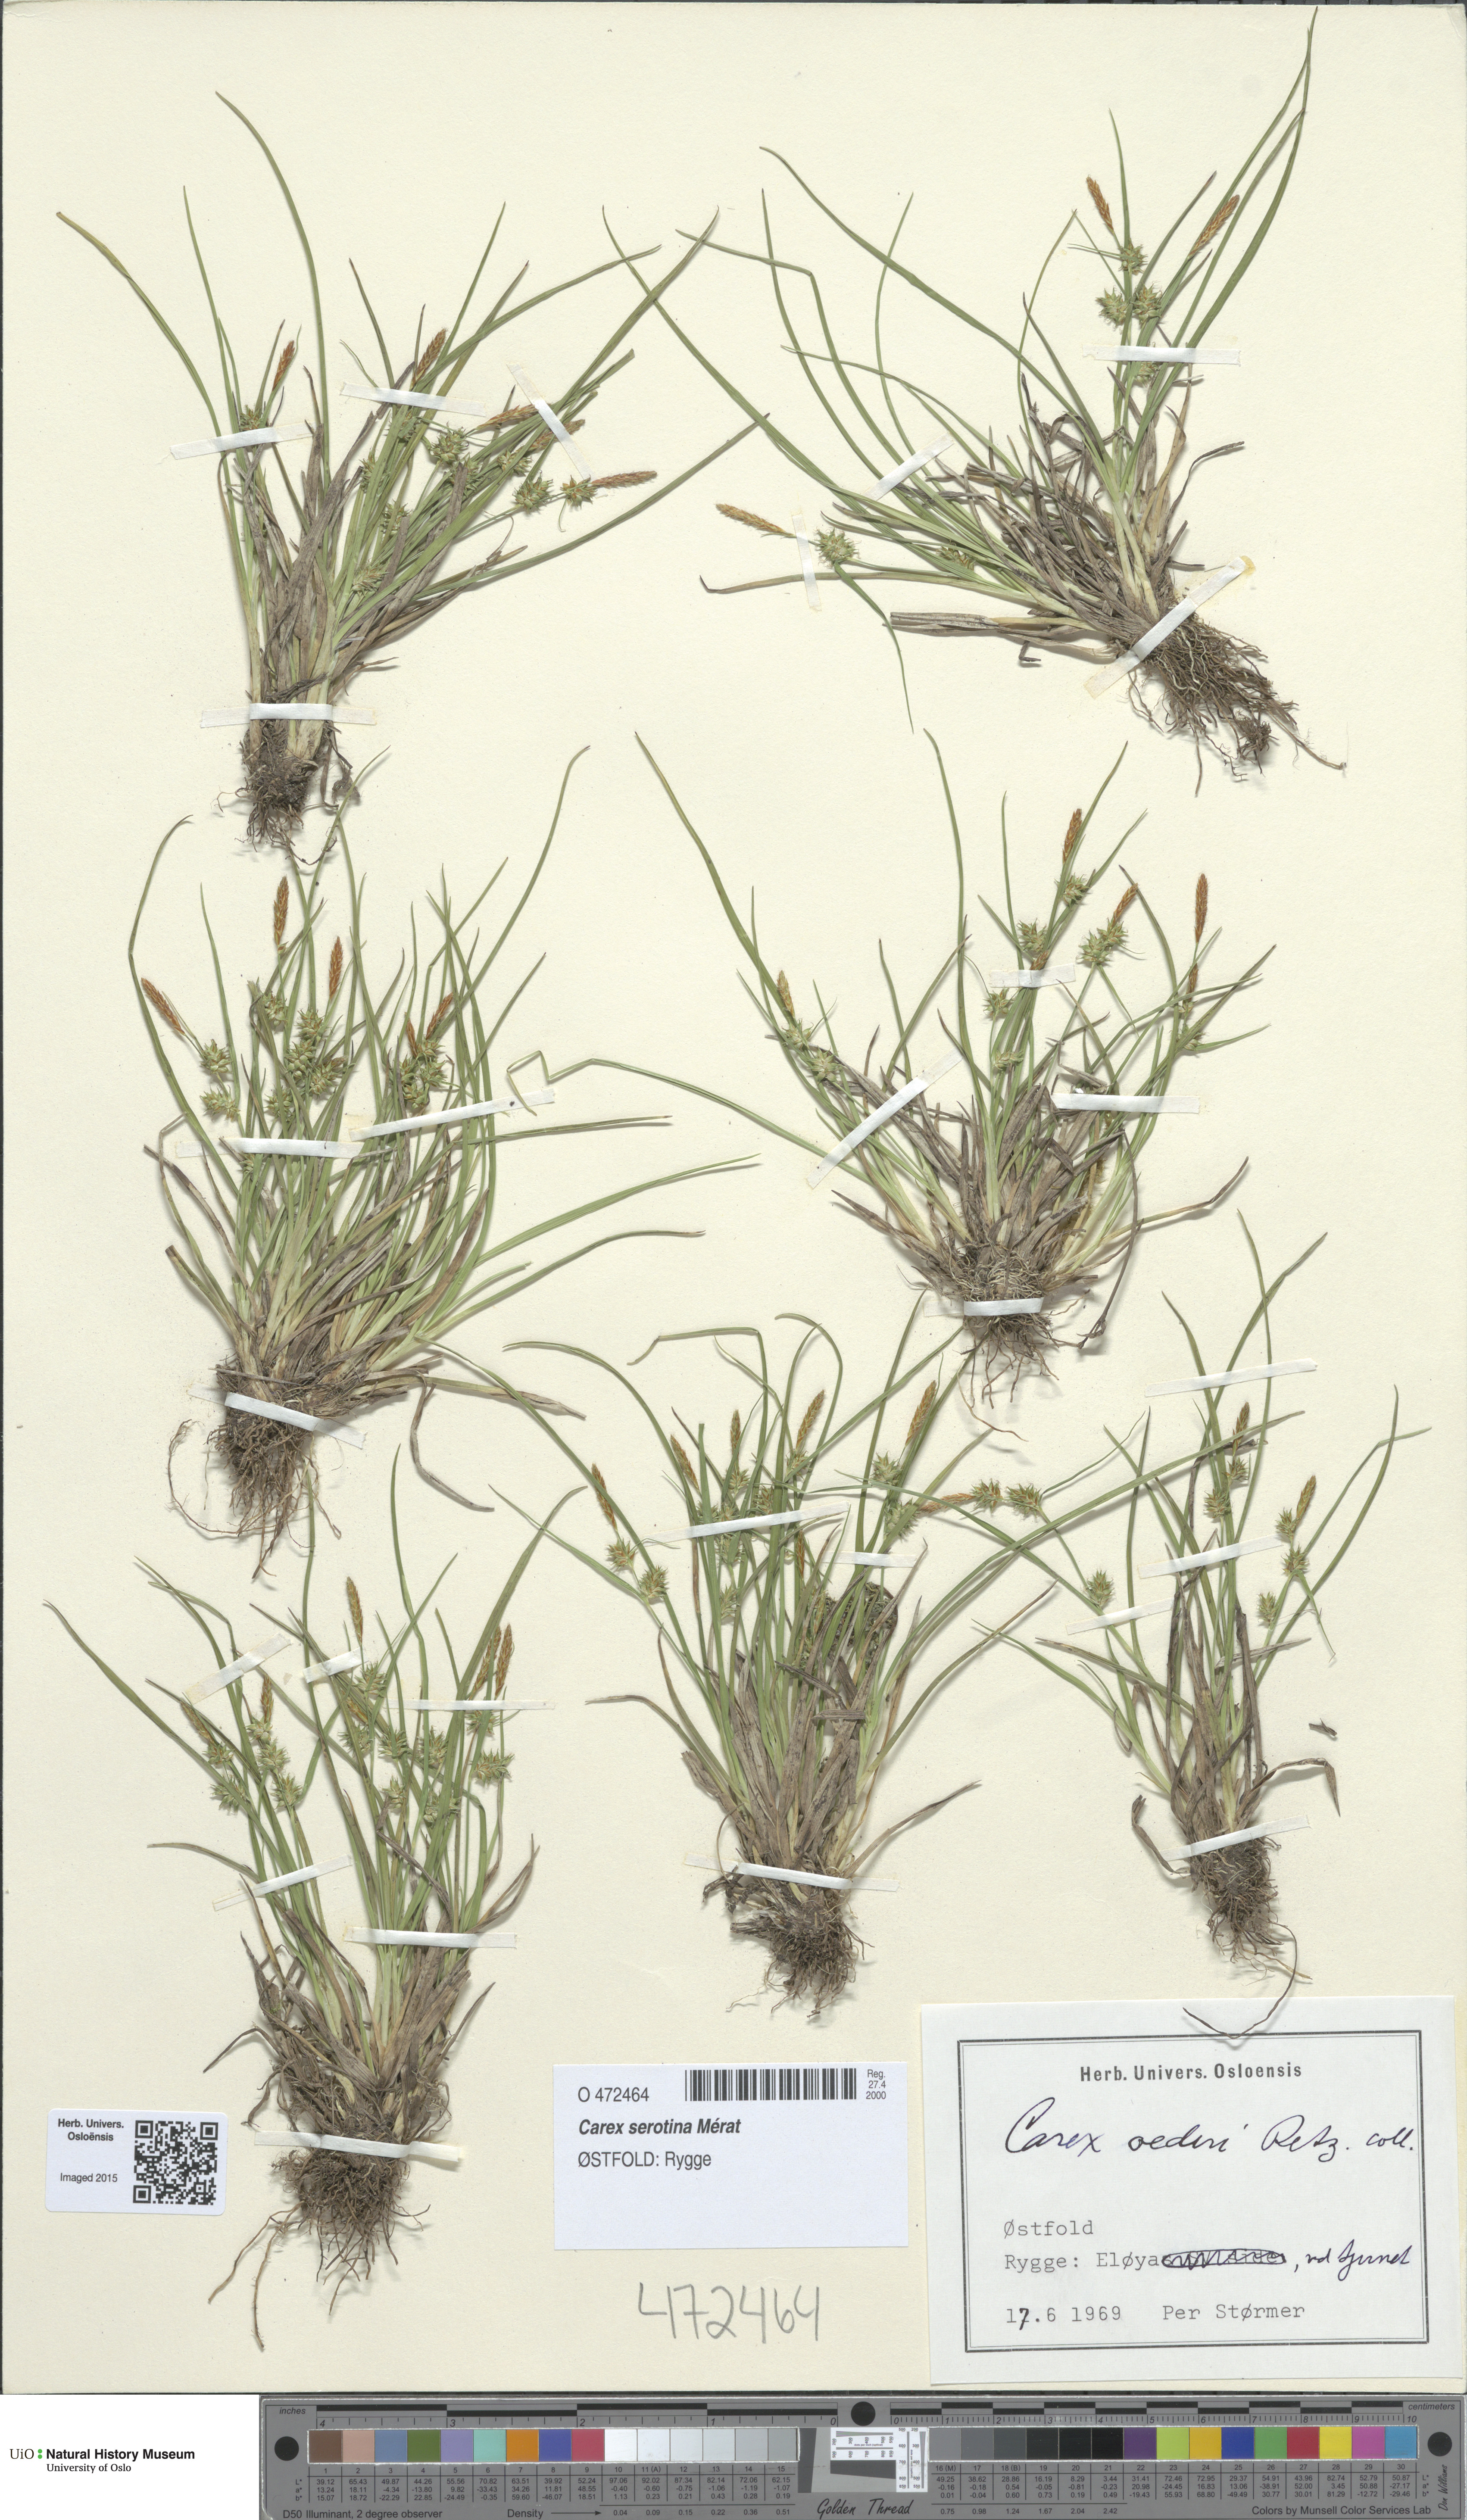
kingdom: Plantae
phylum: Tracheophyta
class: Liliopsida
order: Poales
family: Cyperaceae
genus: Carex
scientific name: Carex demissa
